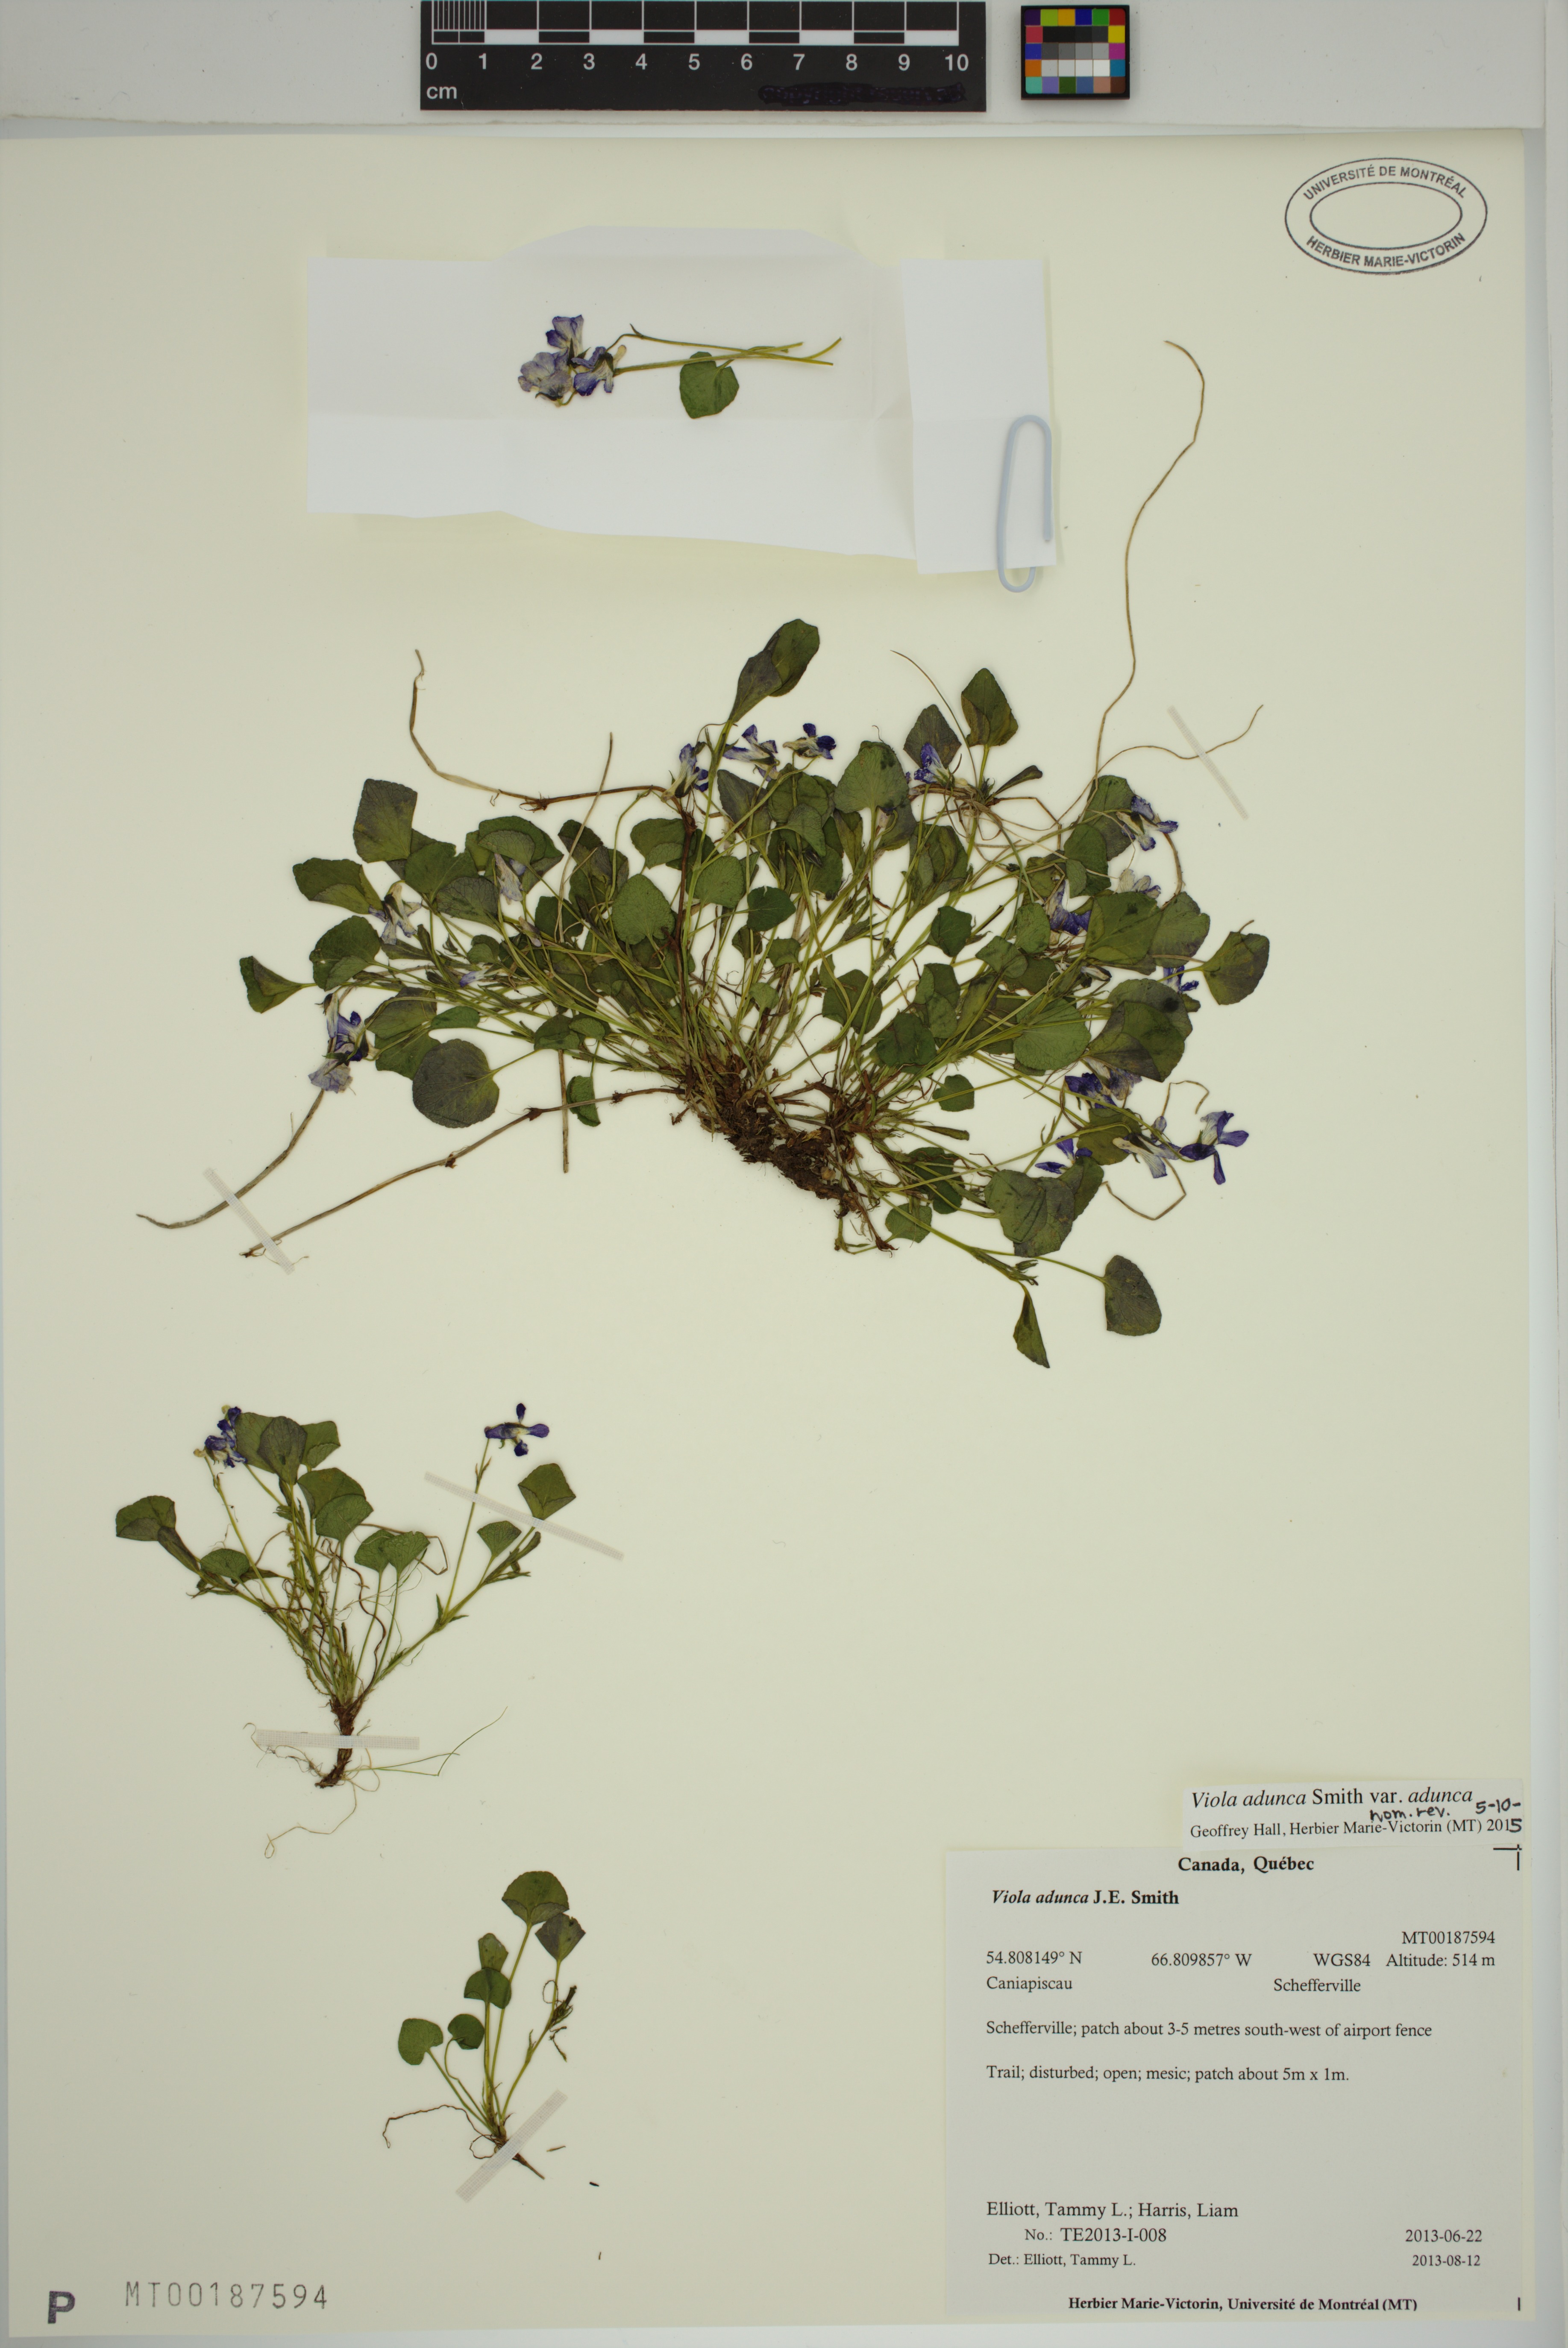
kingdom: Plantae
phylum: Tracheophyta
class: Magnoliopsida
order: Malpighiales
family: Violaceae
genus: Viola
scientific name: Viola adunca
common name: Sand violet
